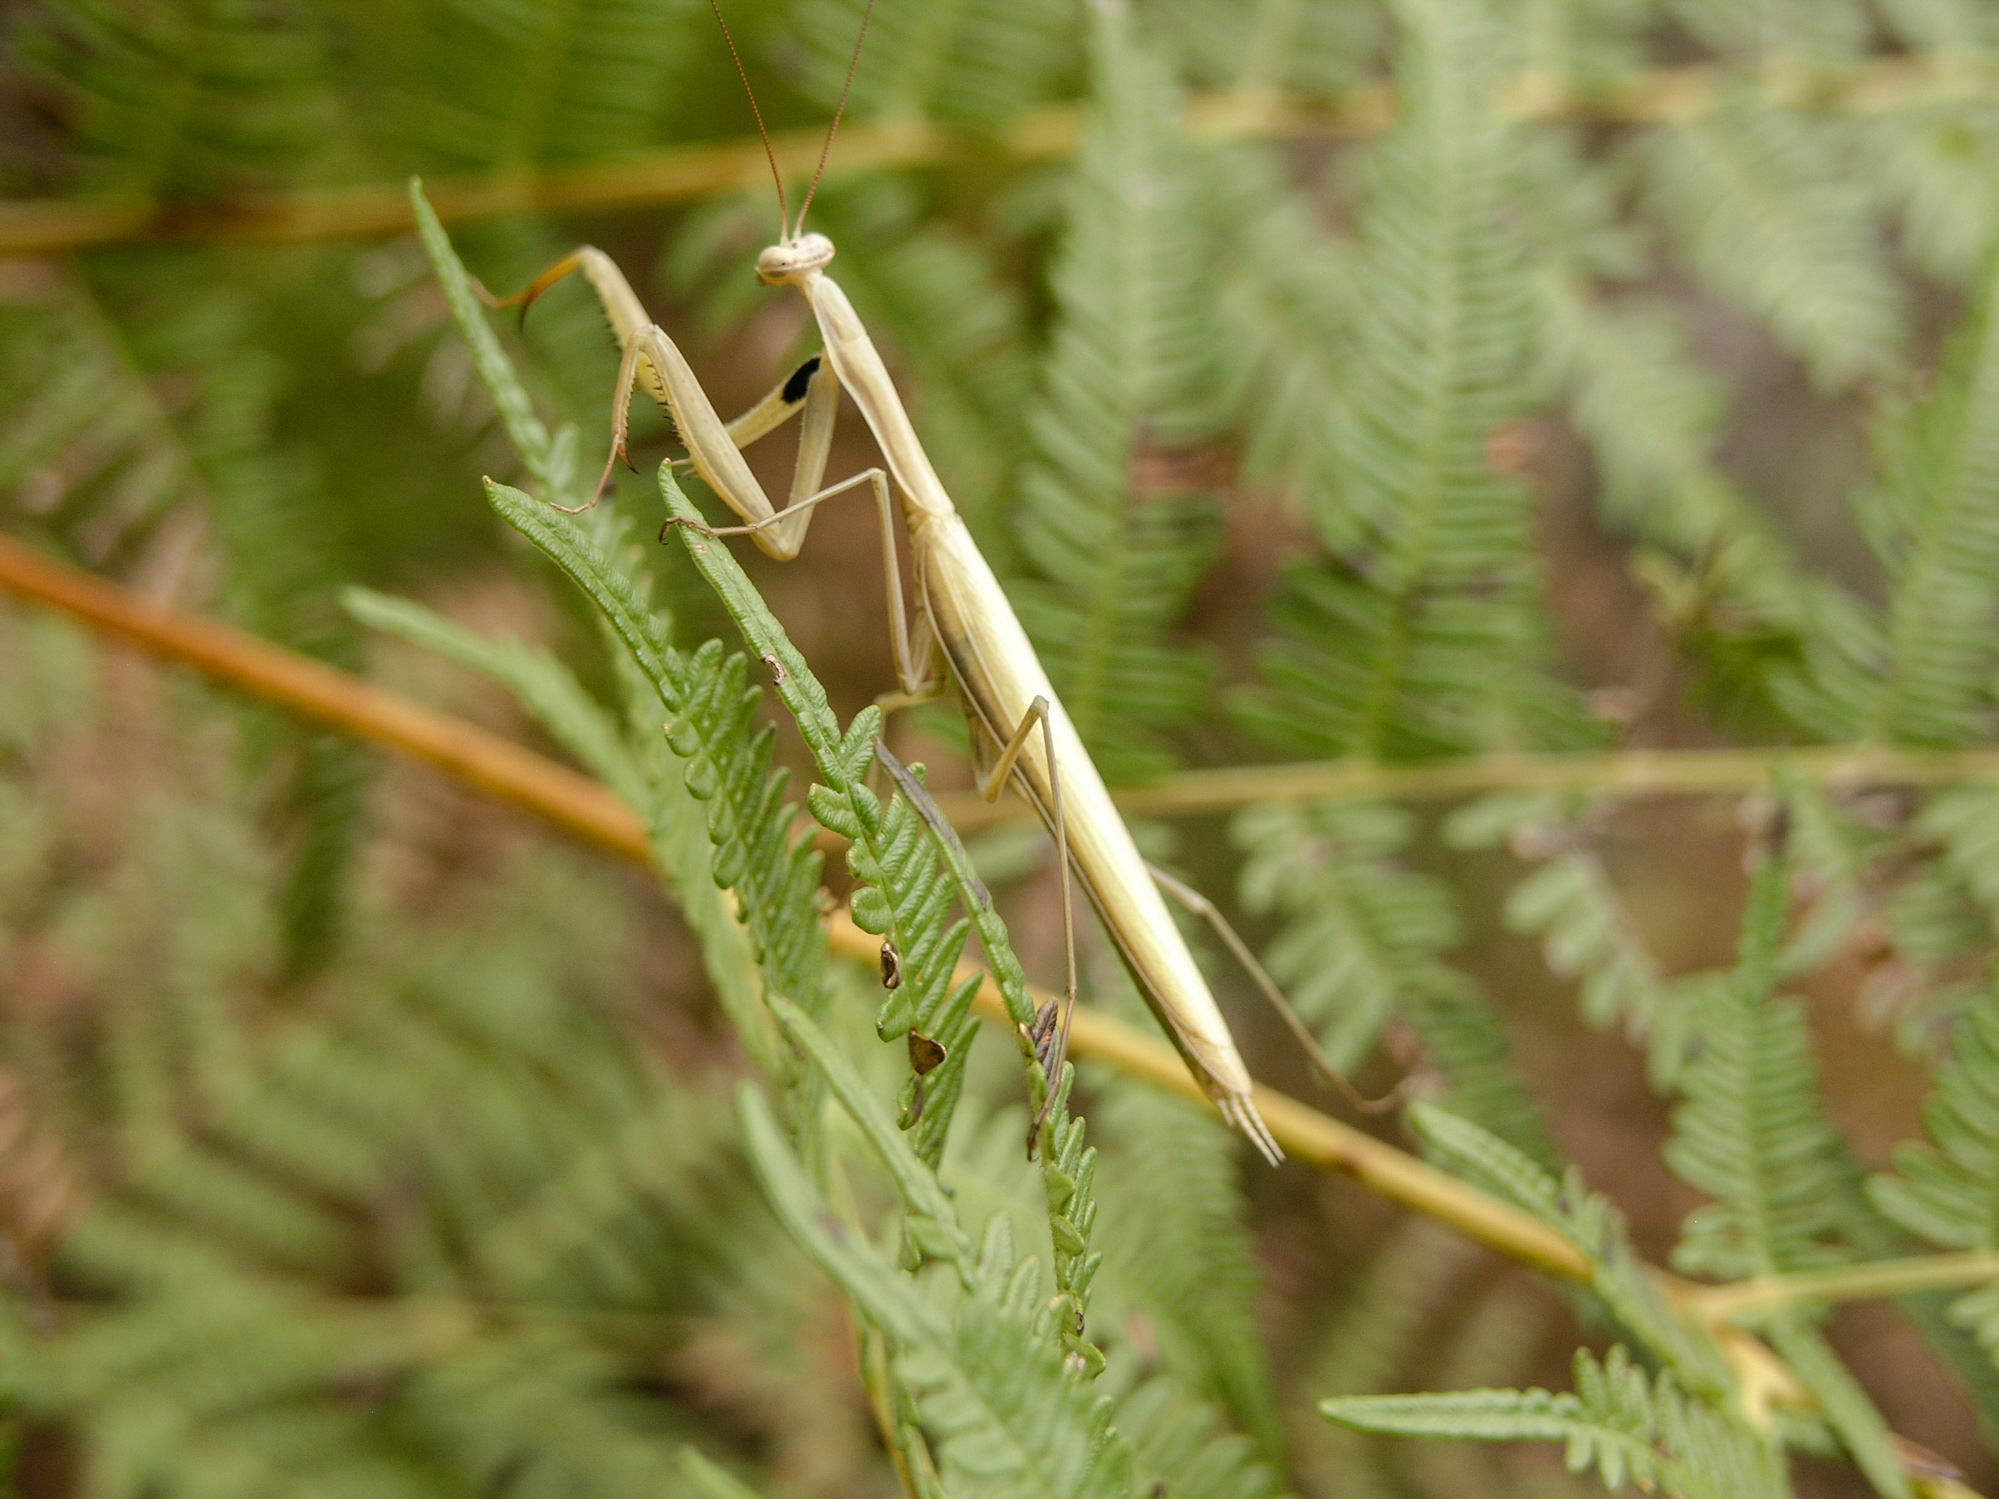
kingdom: Animalia
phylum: Arthropoda
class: Insecta
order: Mantodea
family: Mantidae
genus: Mantis
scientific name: Mantis religiosa
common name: Praying mantis
